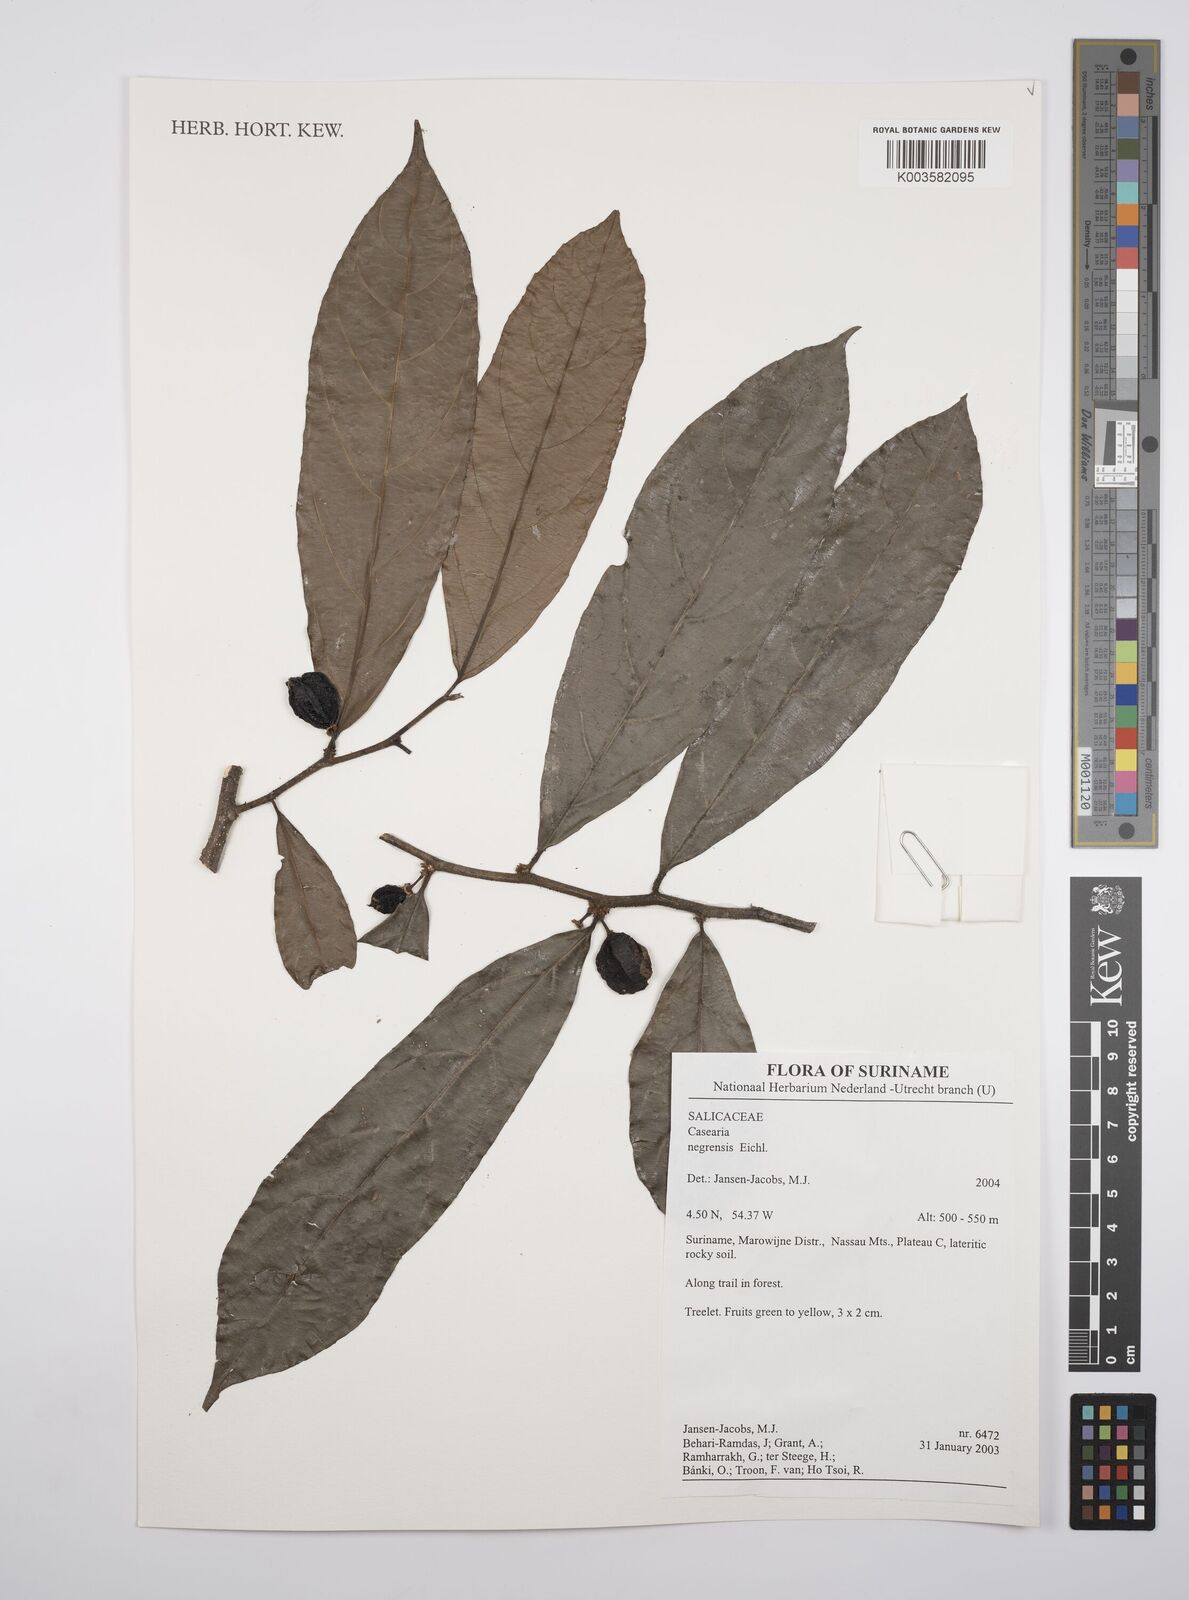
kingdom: Plantae
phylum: Tracheophyta
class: Magnoliopsida
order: Malpighiales
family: Salicaceae
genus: Casearia
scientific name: Casearia negrensis
